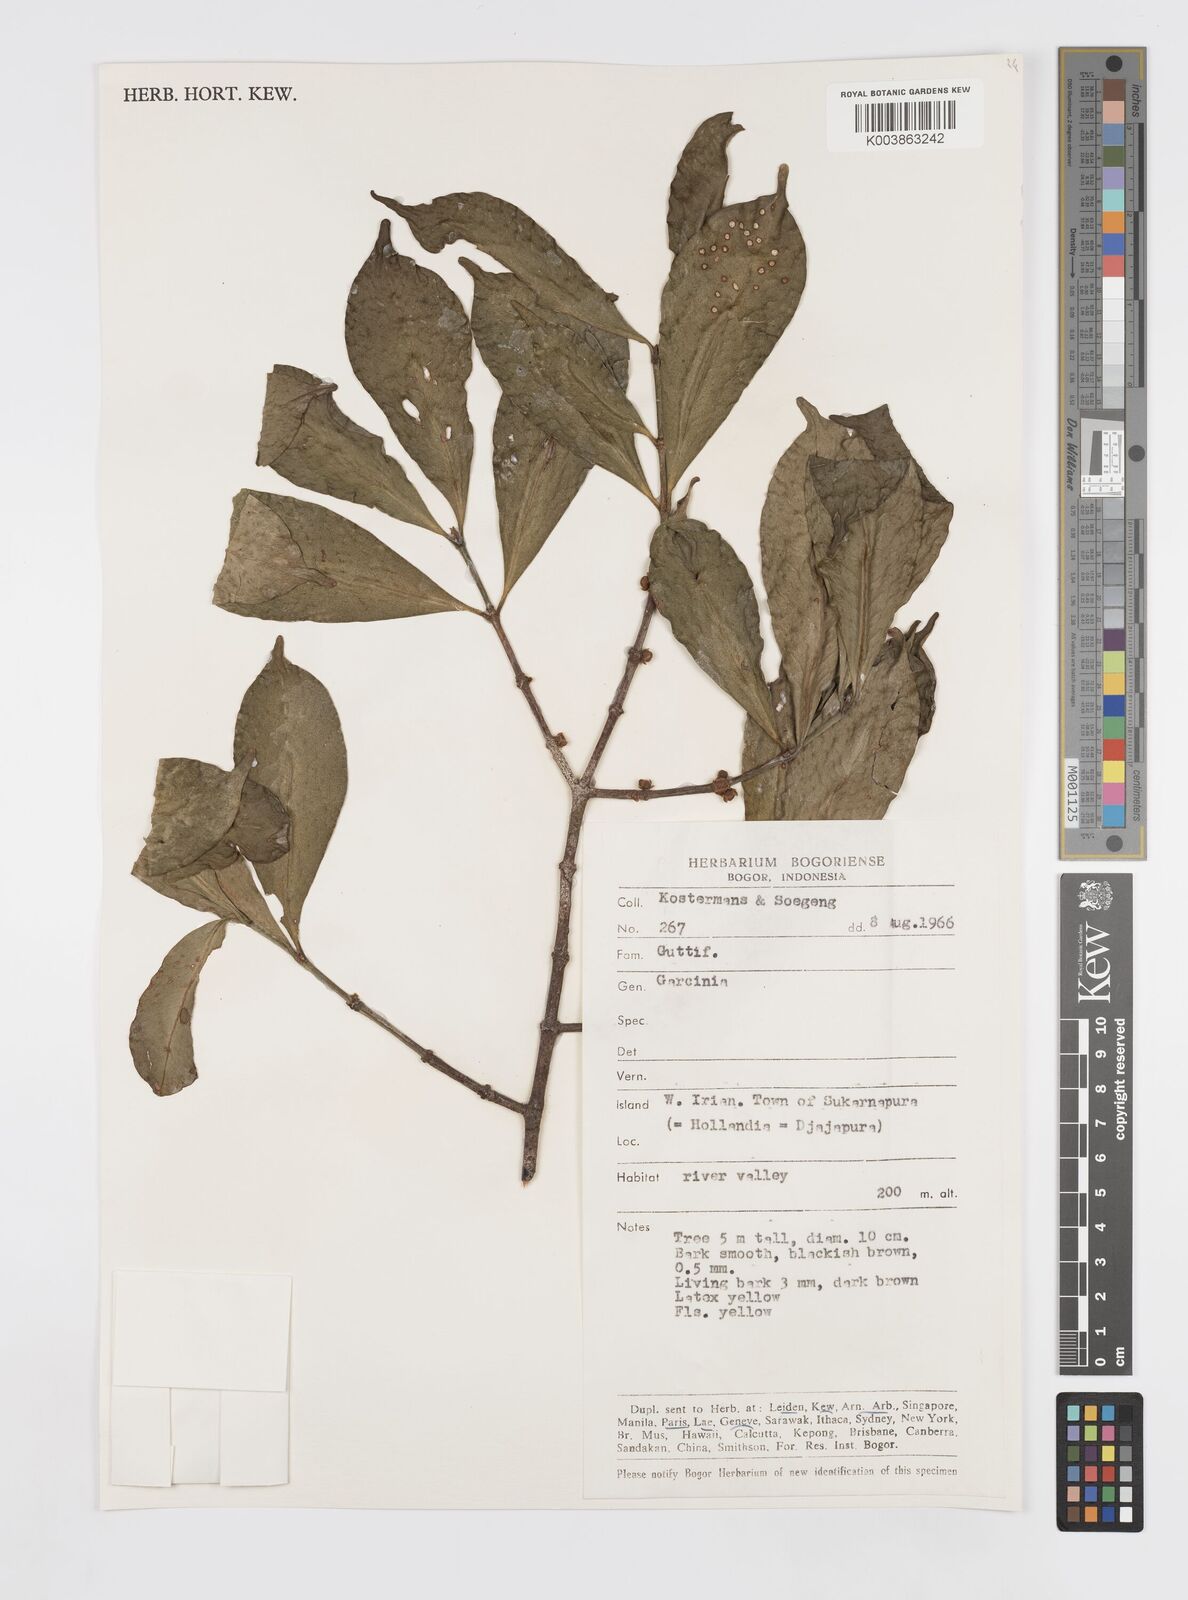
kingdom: Plantae
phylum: Tracheophyta
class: Magnoliopsida
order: Malpighiales
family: Clusiaceae
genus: Garcinia
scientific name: Garcinia
